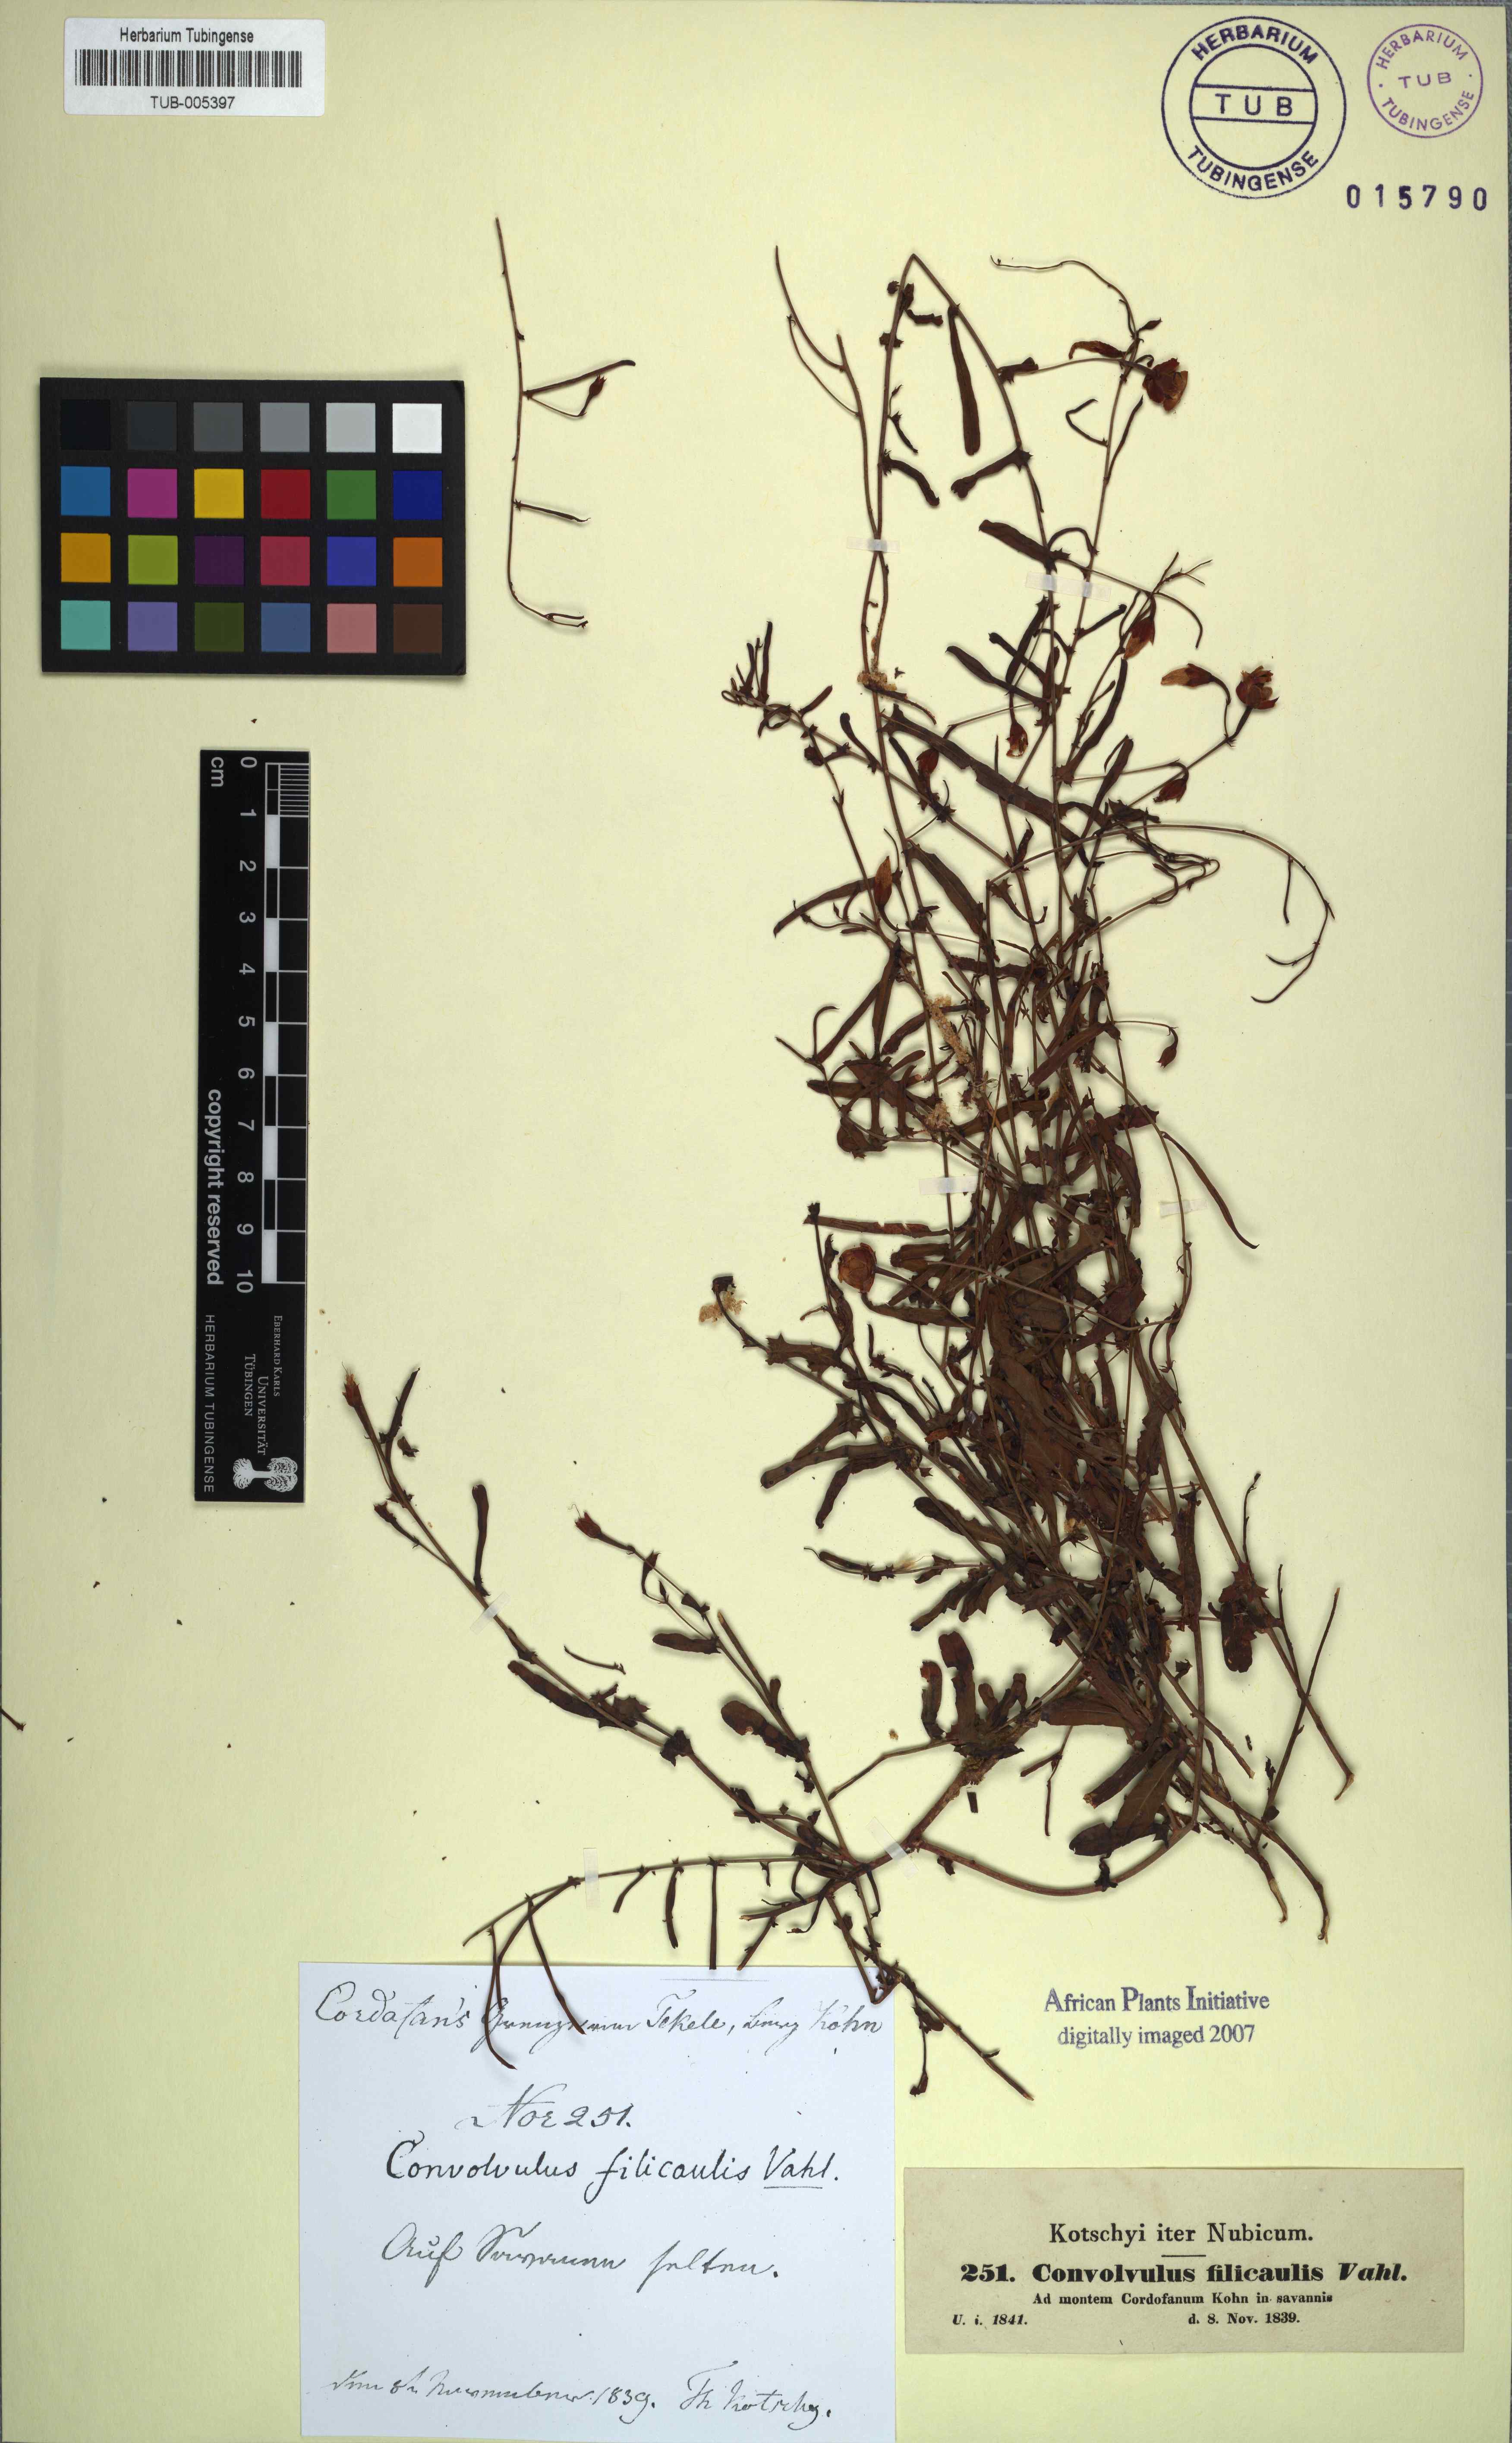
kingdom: Plantae
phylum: Tracheophyta
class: Magnoliopsida
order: Solanales
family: Convolvulaceae
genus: Xenostegia
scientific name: Xenostegia tridentata
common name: African morningvine
